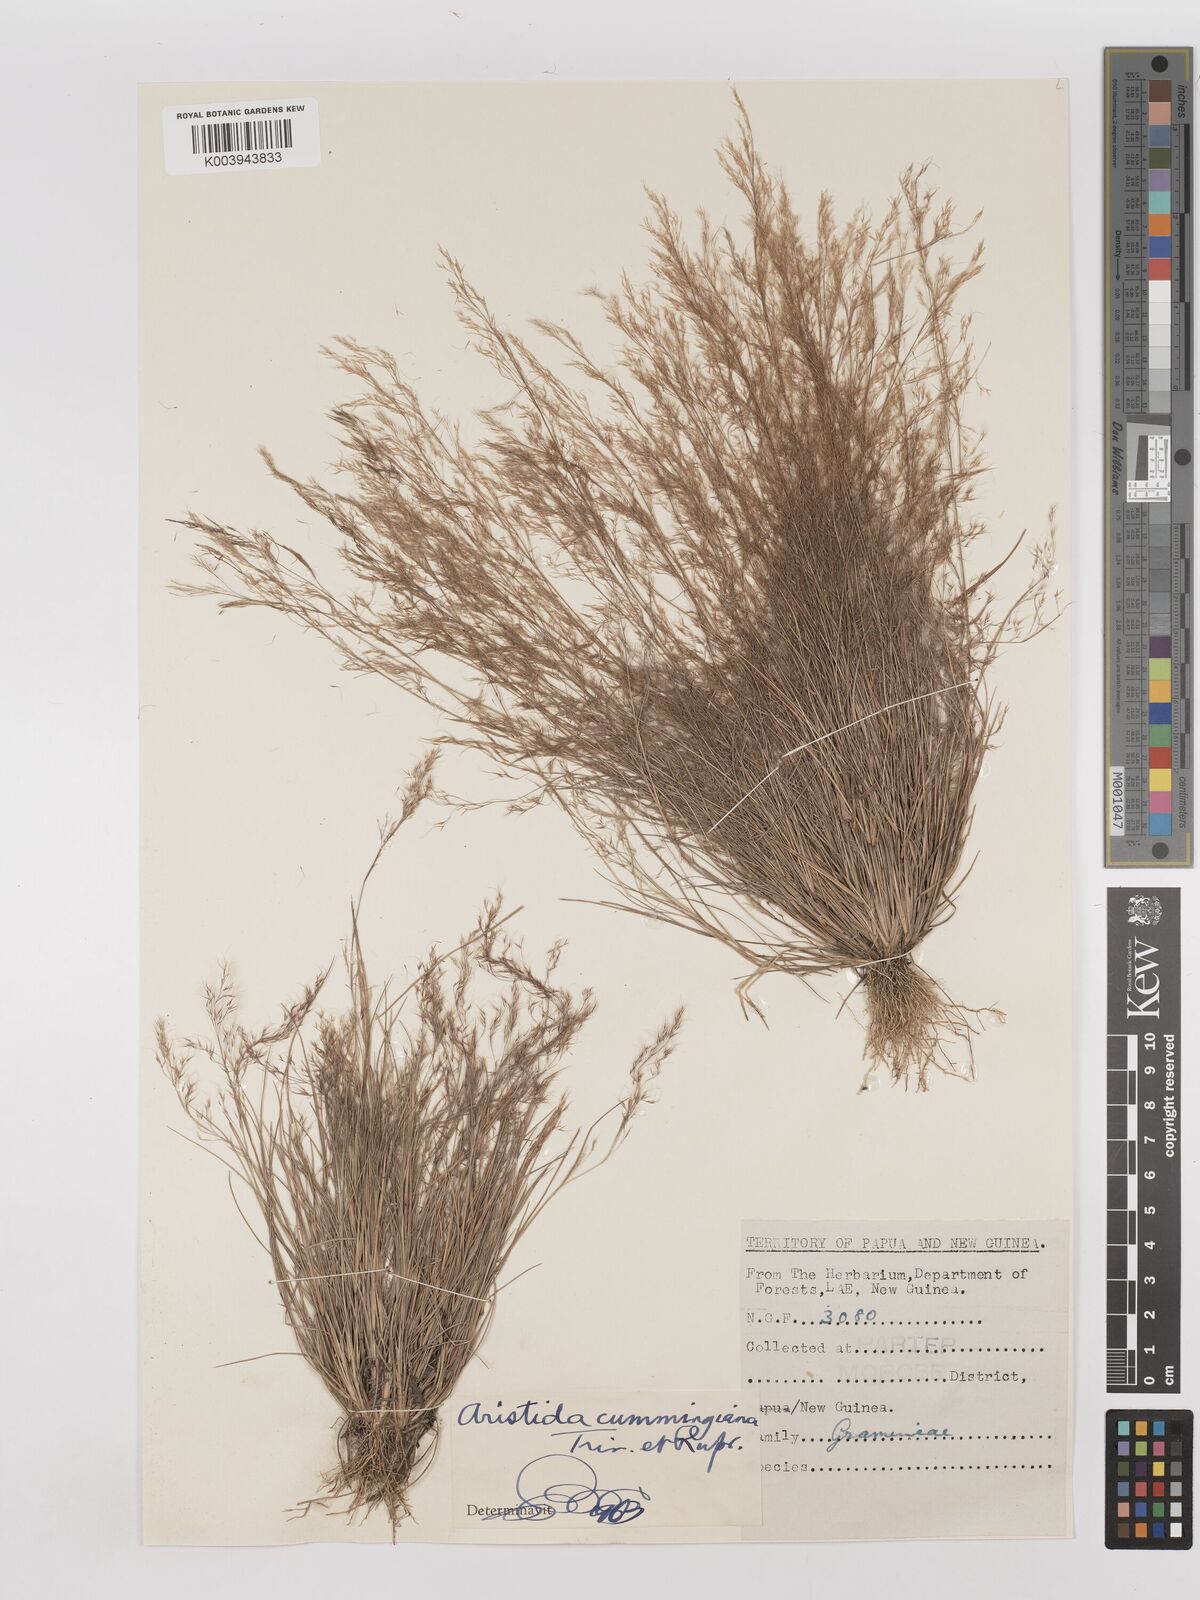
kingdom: Plantae
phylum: Tracheophyta
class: Liliopsida
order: Poales
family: Poaceae
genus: Aristida
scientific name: Aristida cumingiana
